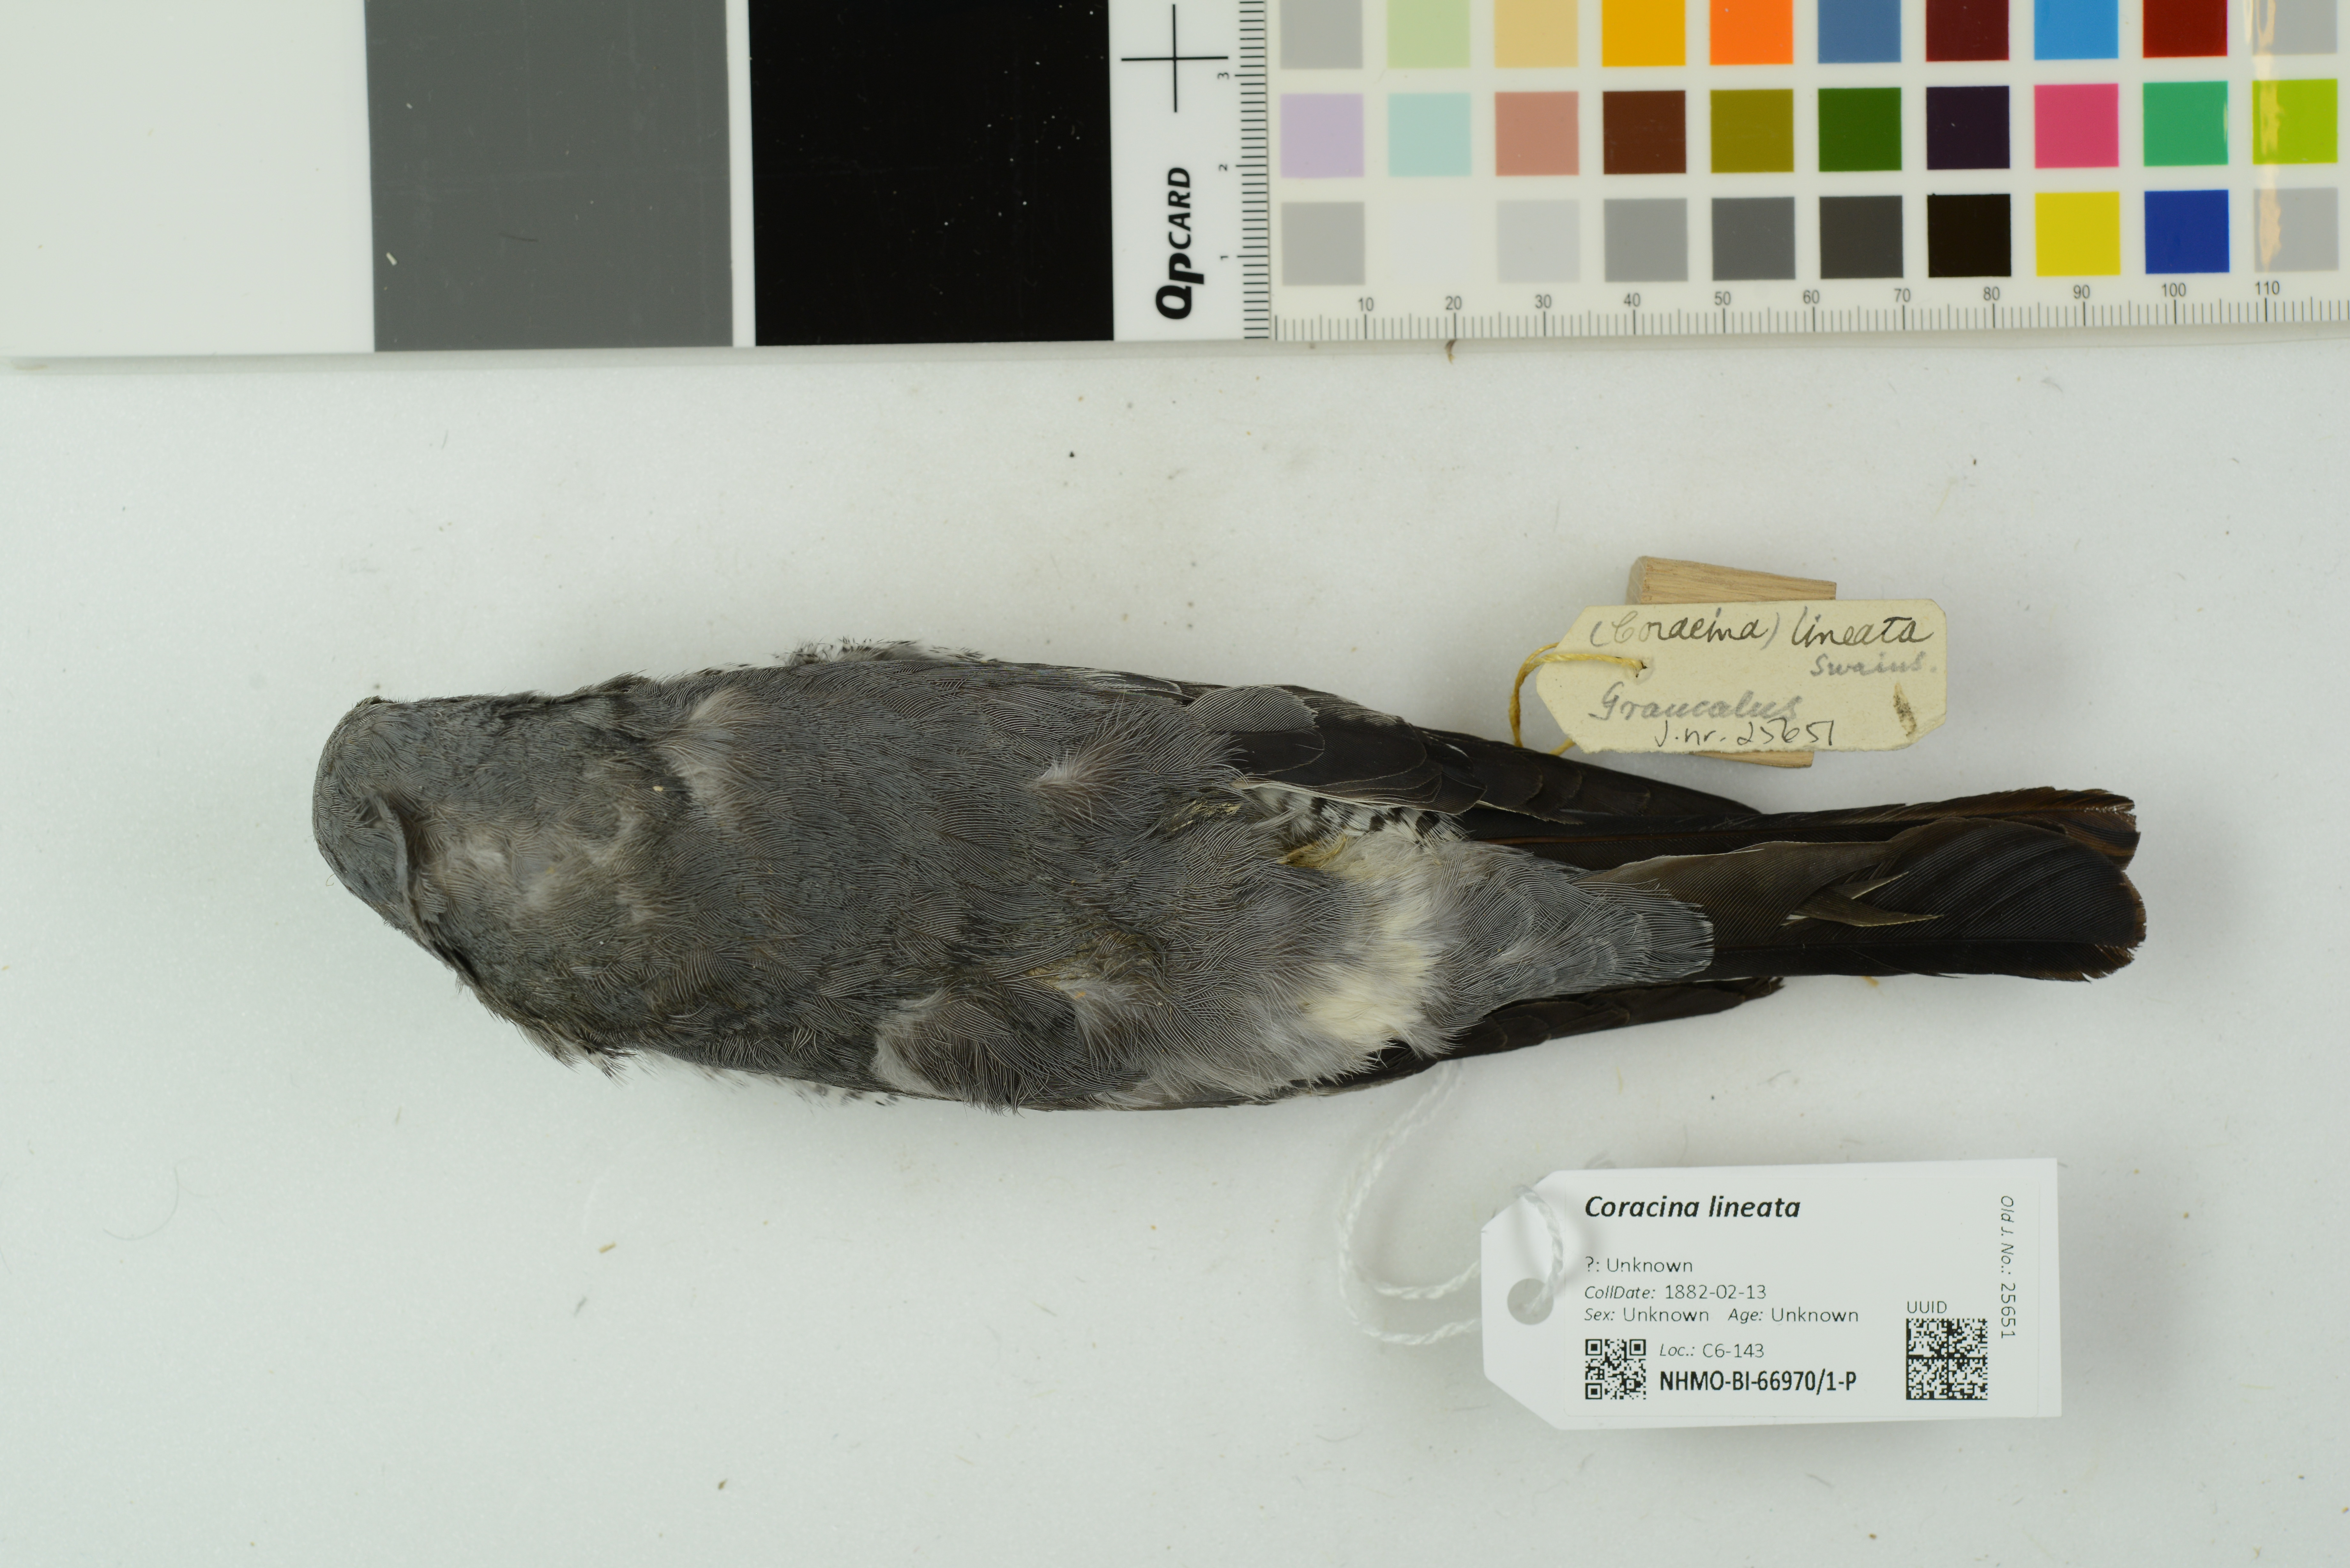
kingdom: Animalia
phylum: Chordata
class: Aves
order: Passeriformes
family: Campephagidae
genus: Coracina
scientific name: Coracina lineata
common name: Barred cuckooshrike
